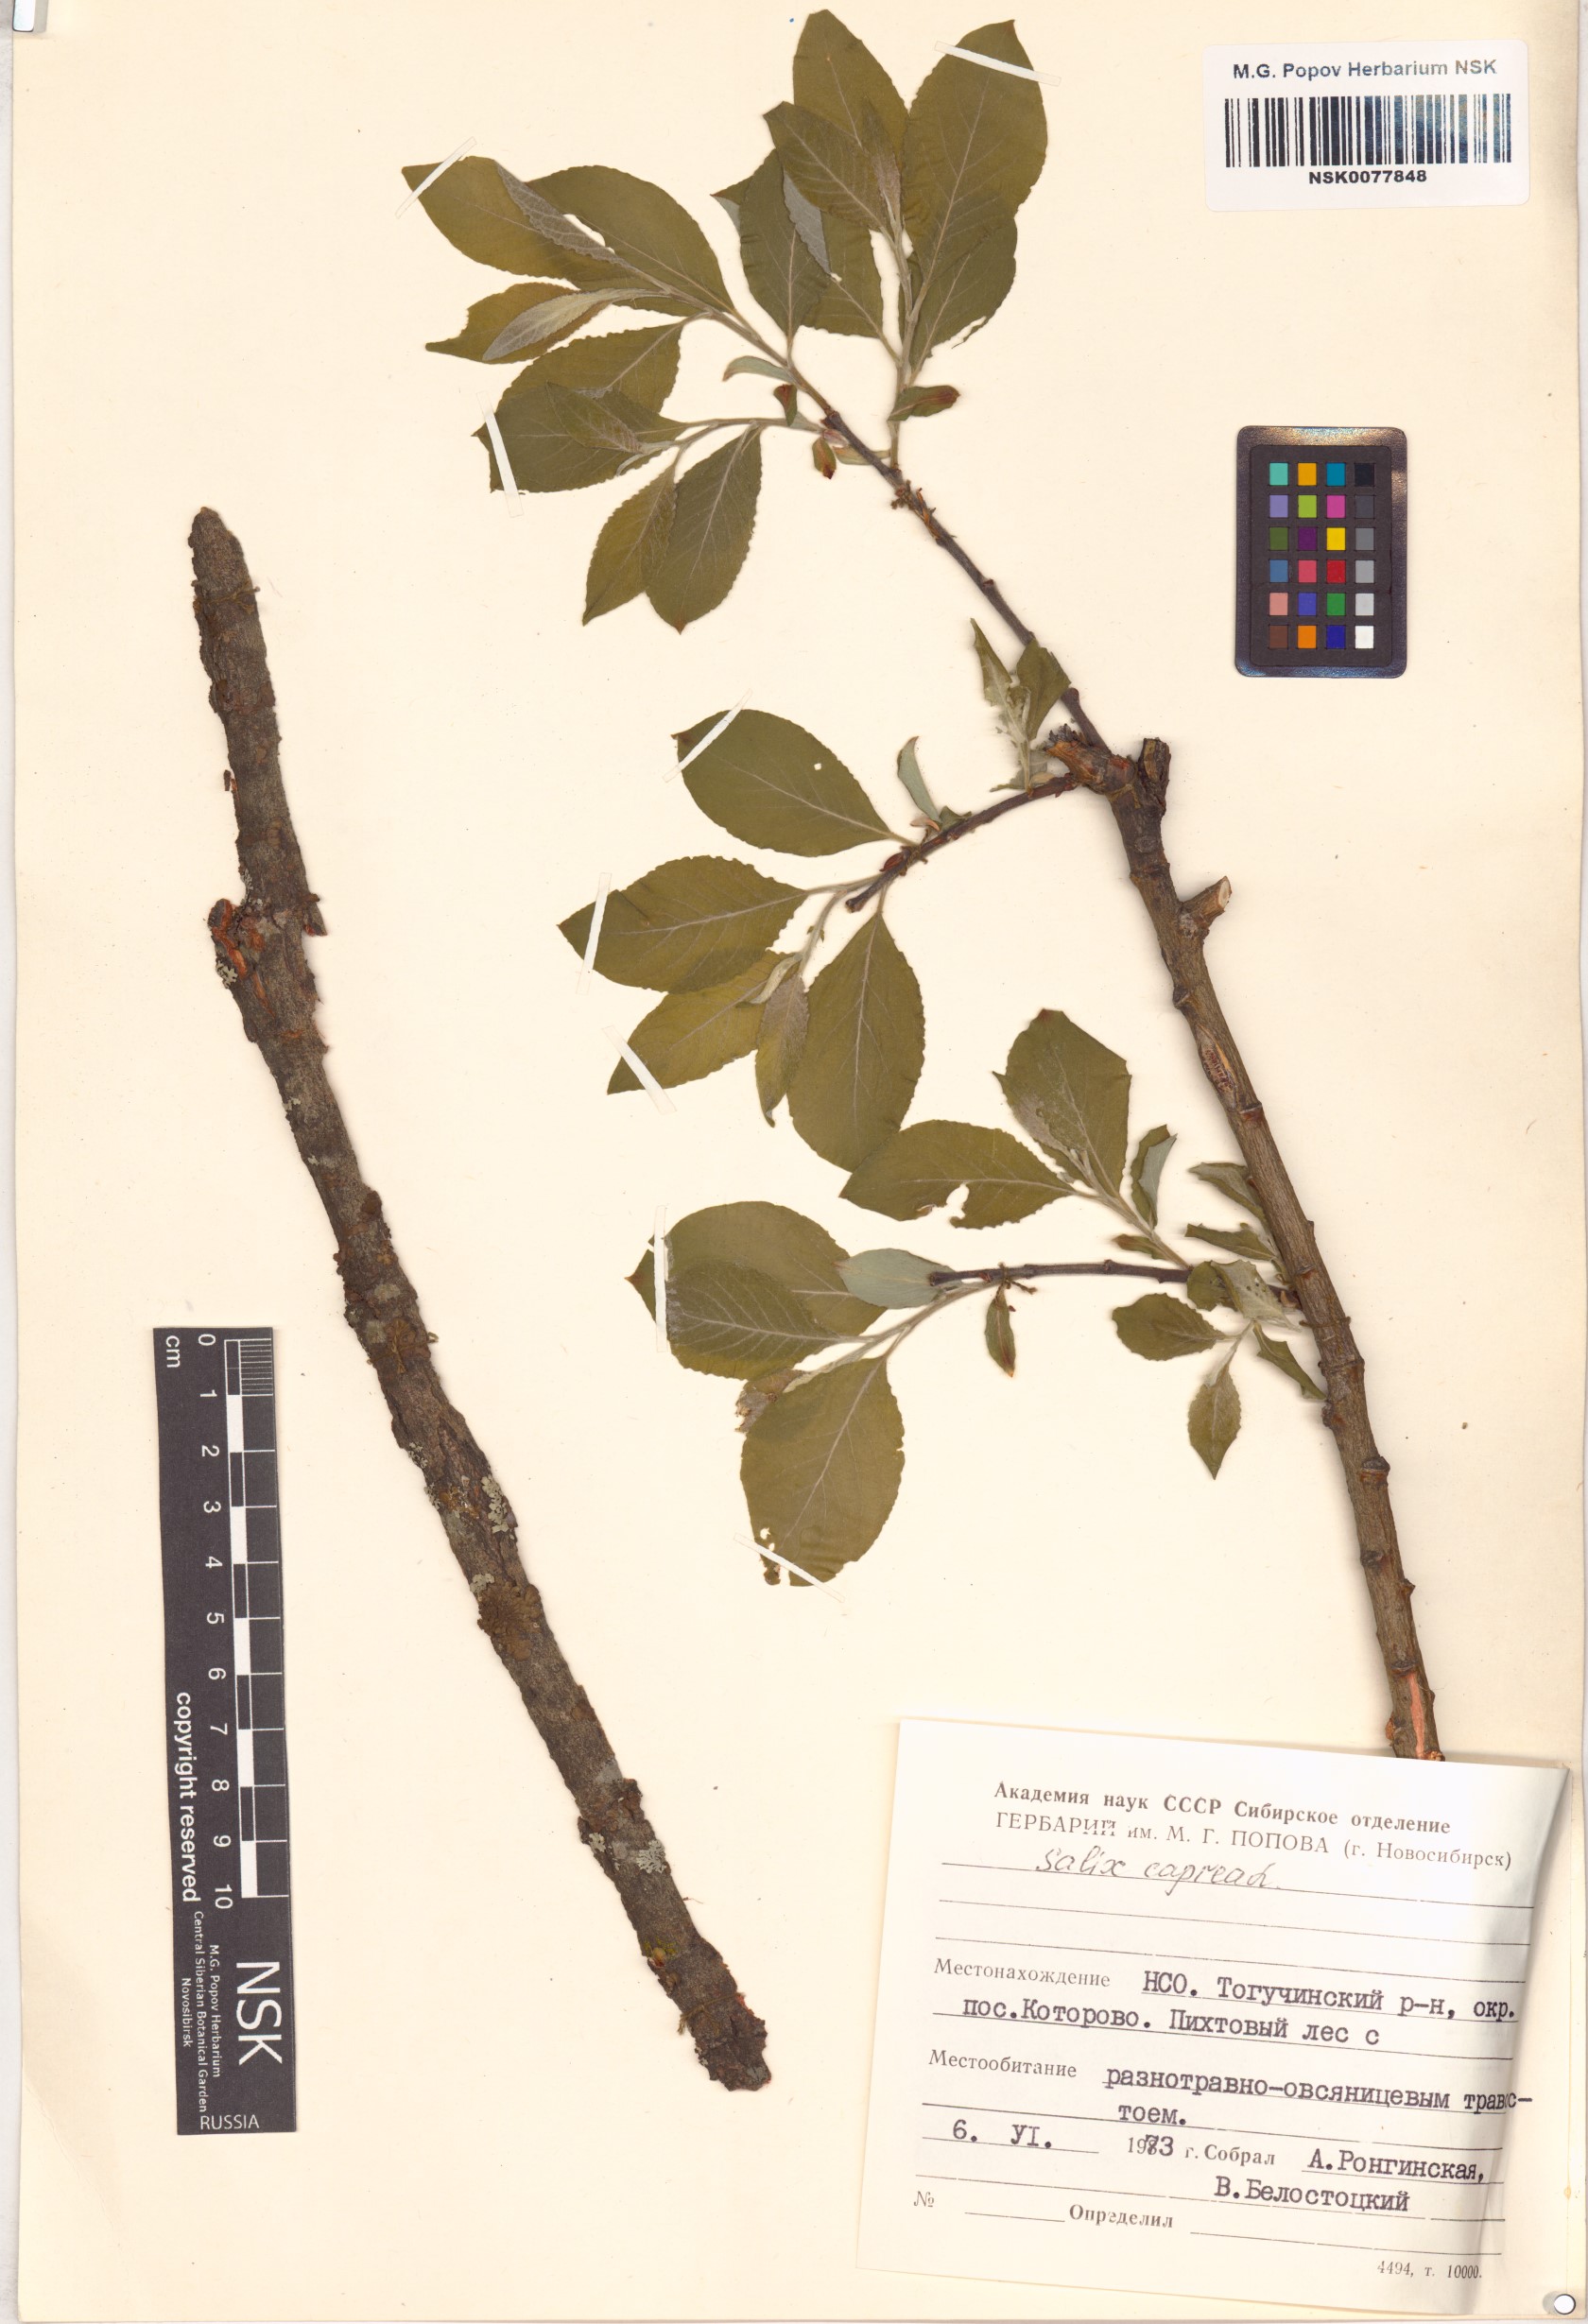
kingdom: Plantae
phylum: Tracheophyta
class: Magnoliopsida
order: Malpighiales
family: Salicaceae
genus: Salix
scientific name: Salix caprea
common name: Goat willow
